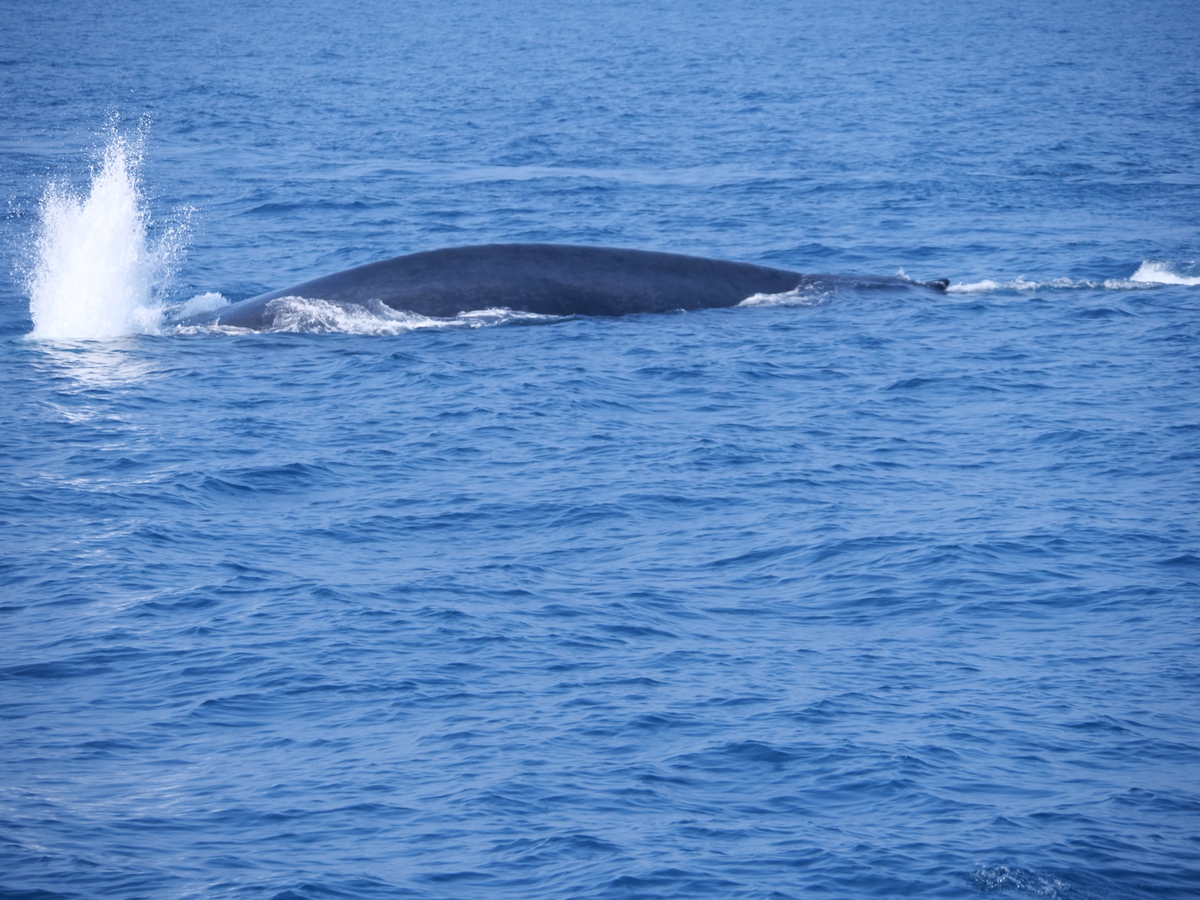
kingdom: Animalia
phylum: Chordata
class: Mammalia
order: Cetacea
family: Balaenopteridae
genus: Balaenoptera
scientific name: Balaenoptera musculus
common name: Blue whale
